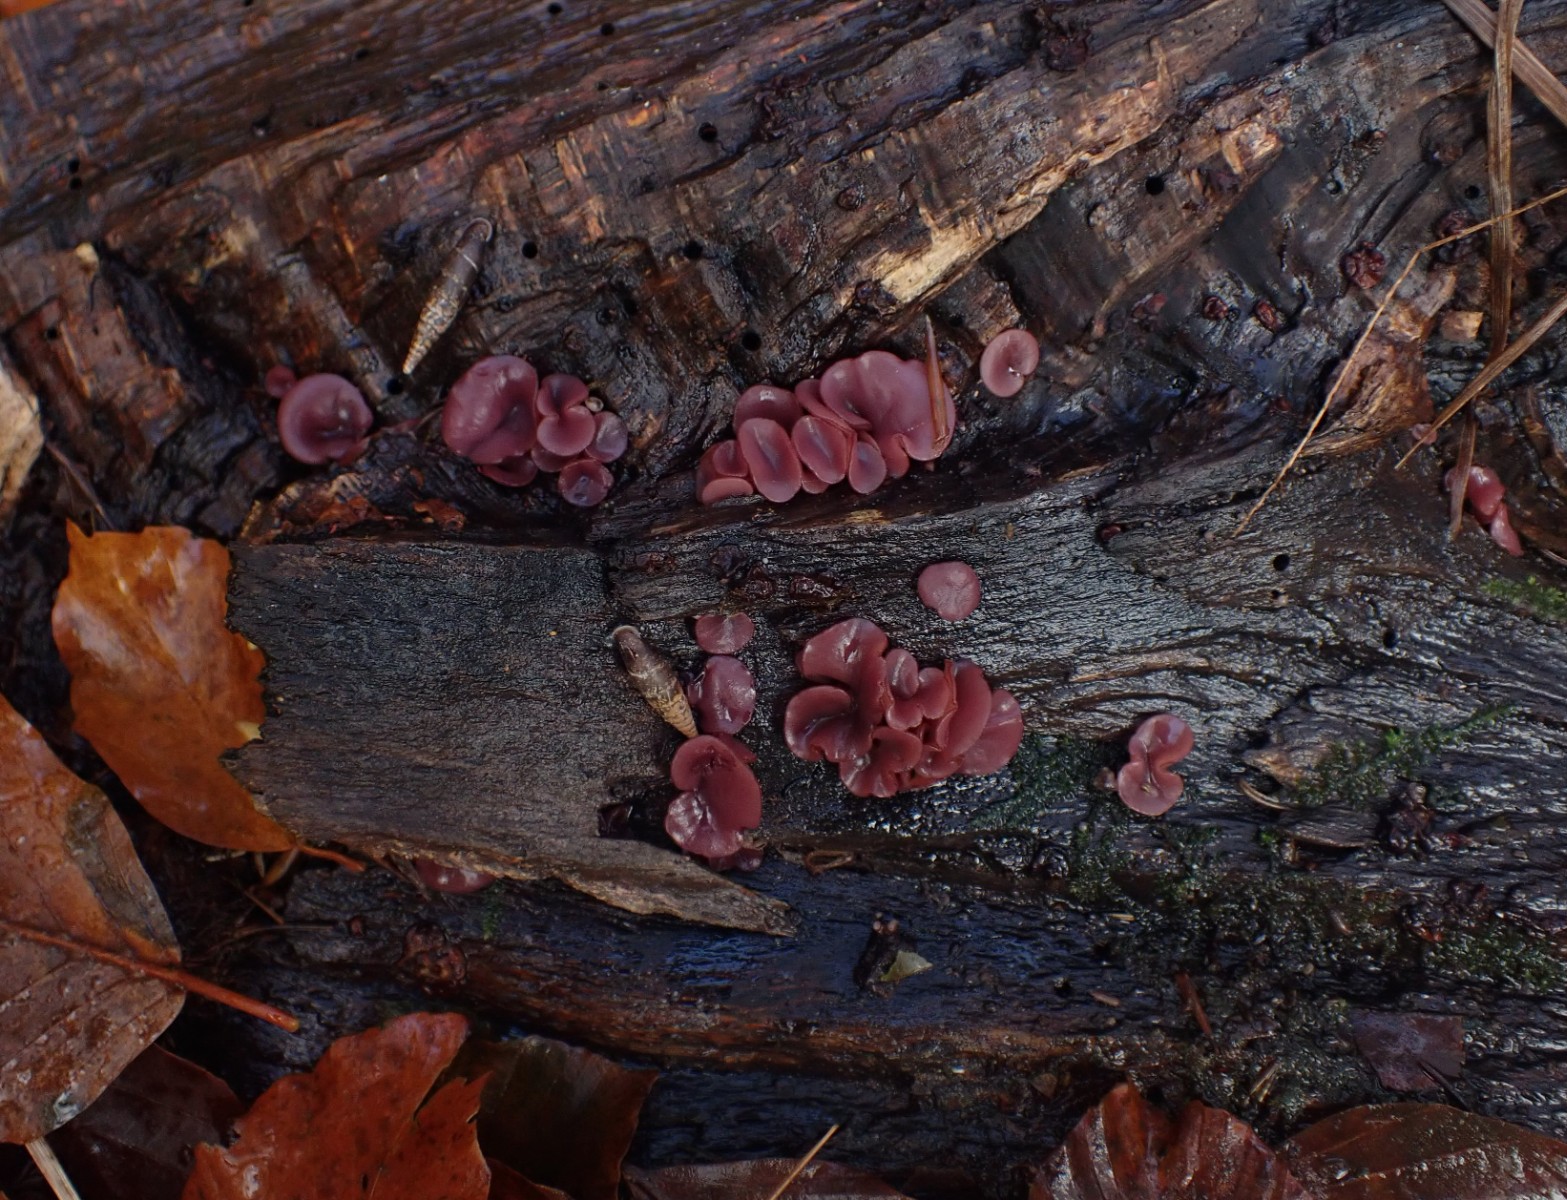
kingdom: Fungi
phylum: Ascomycota
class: Leotiomycetes
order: Helotiales
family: Gelatinodiscaceae
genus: Ascocoryne
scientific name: Ascocoryne cylichnium
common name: stor sejskive
